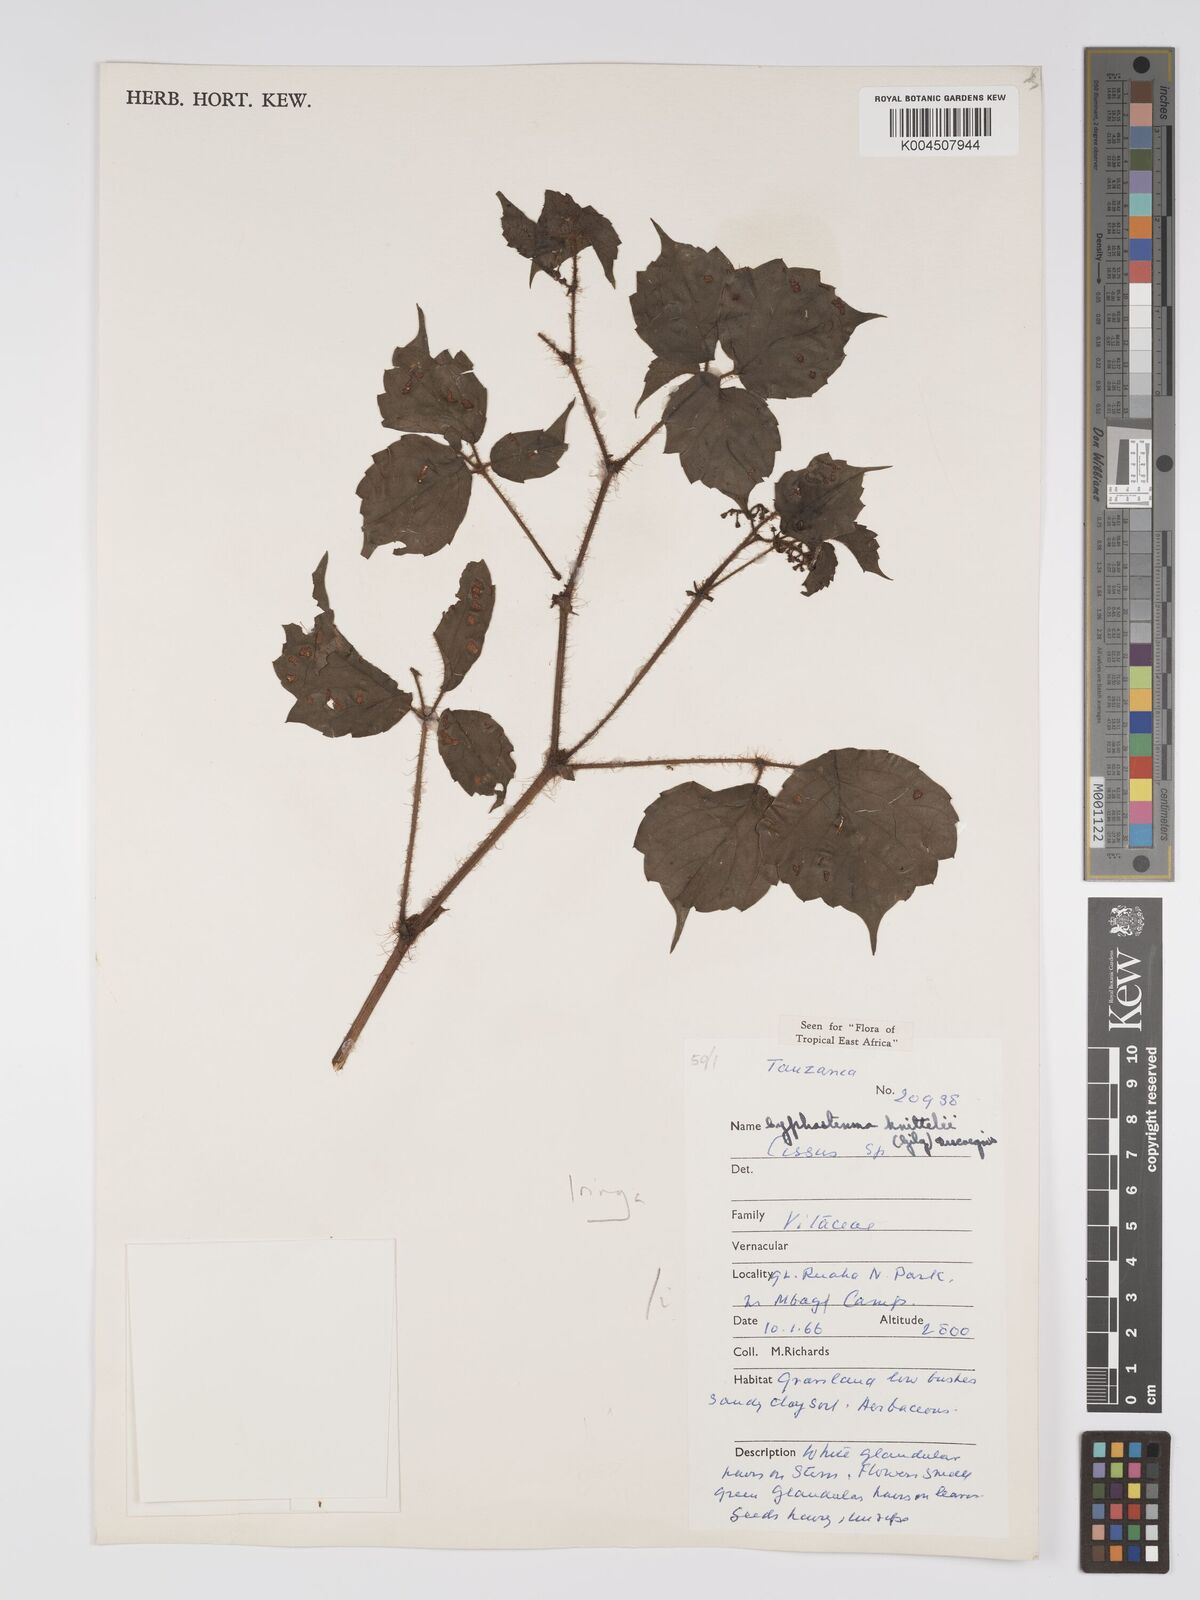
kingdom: Plantae
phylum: Tracheophyta
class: Magnoliopsida
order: Vitales
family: Vitaceae
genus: Cyphostemma
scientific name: Cyphostemma knittelii
